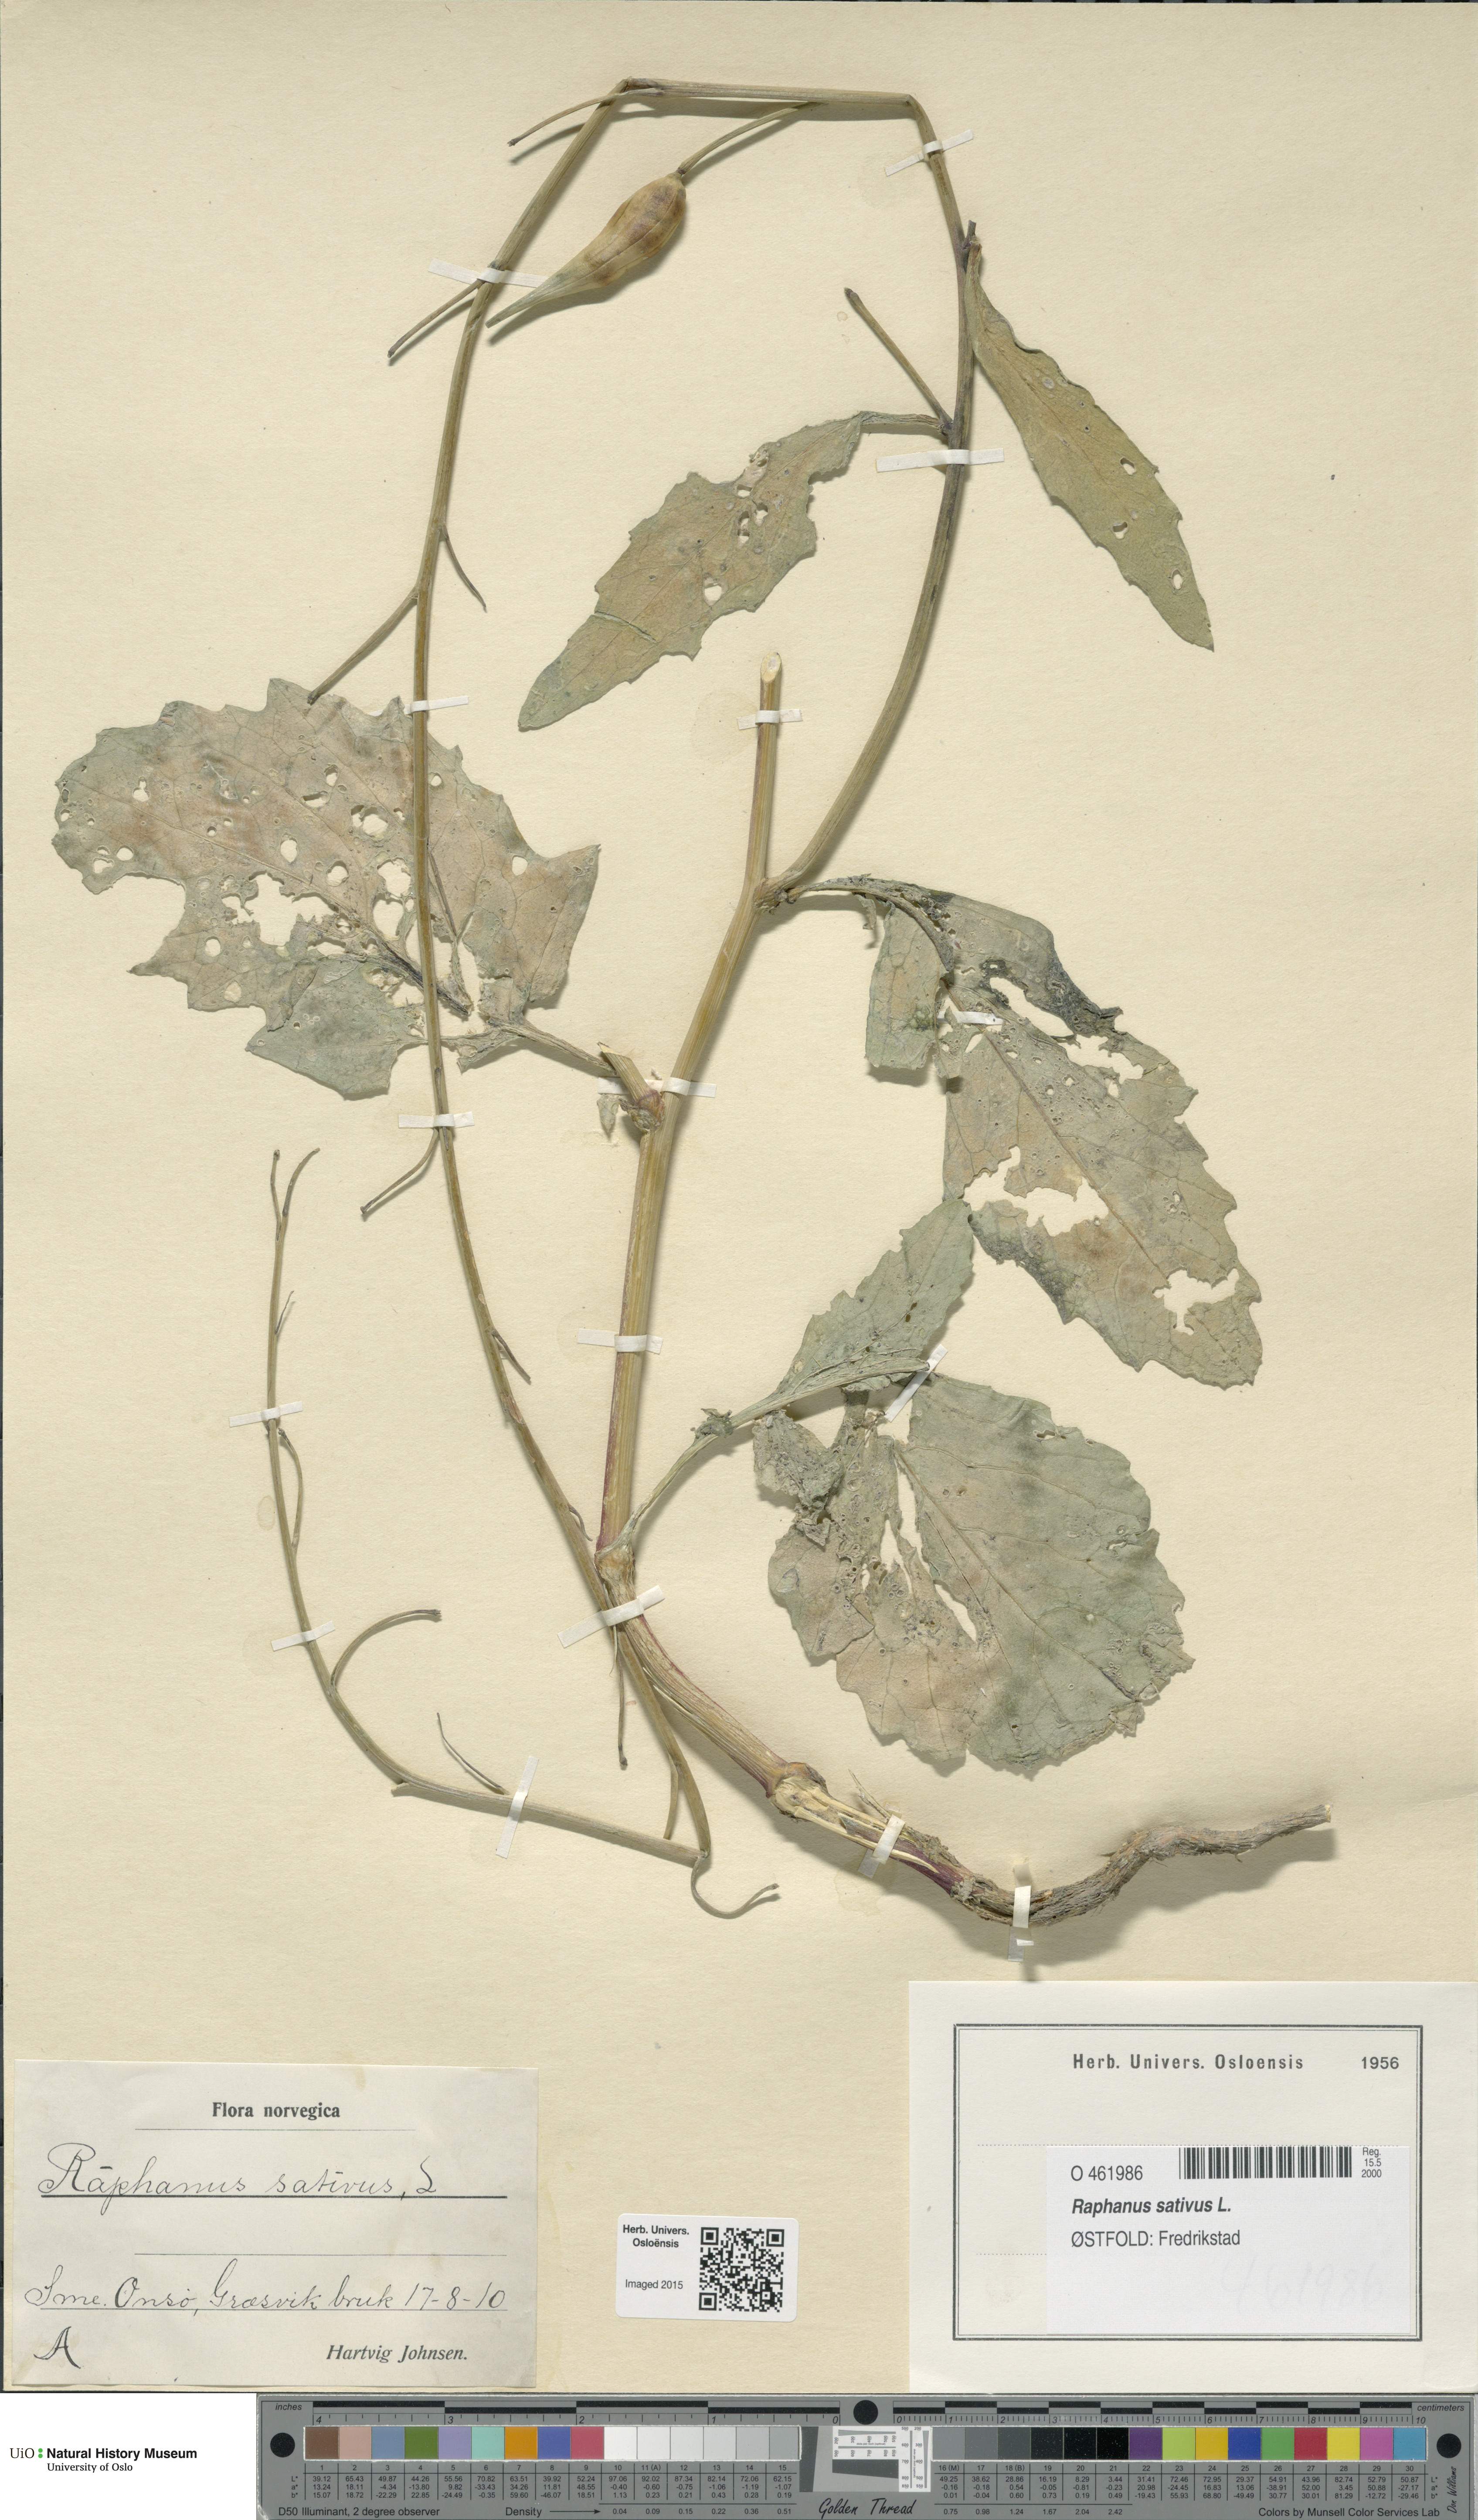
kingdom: Plantae
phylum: Tracheophyta
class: Magnoliopsida
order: Brassicales
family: Brassicaceae
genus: Raphanus
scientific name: Raphanus sativus
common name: Cultivated radish
